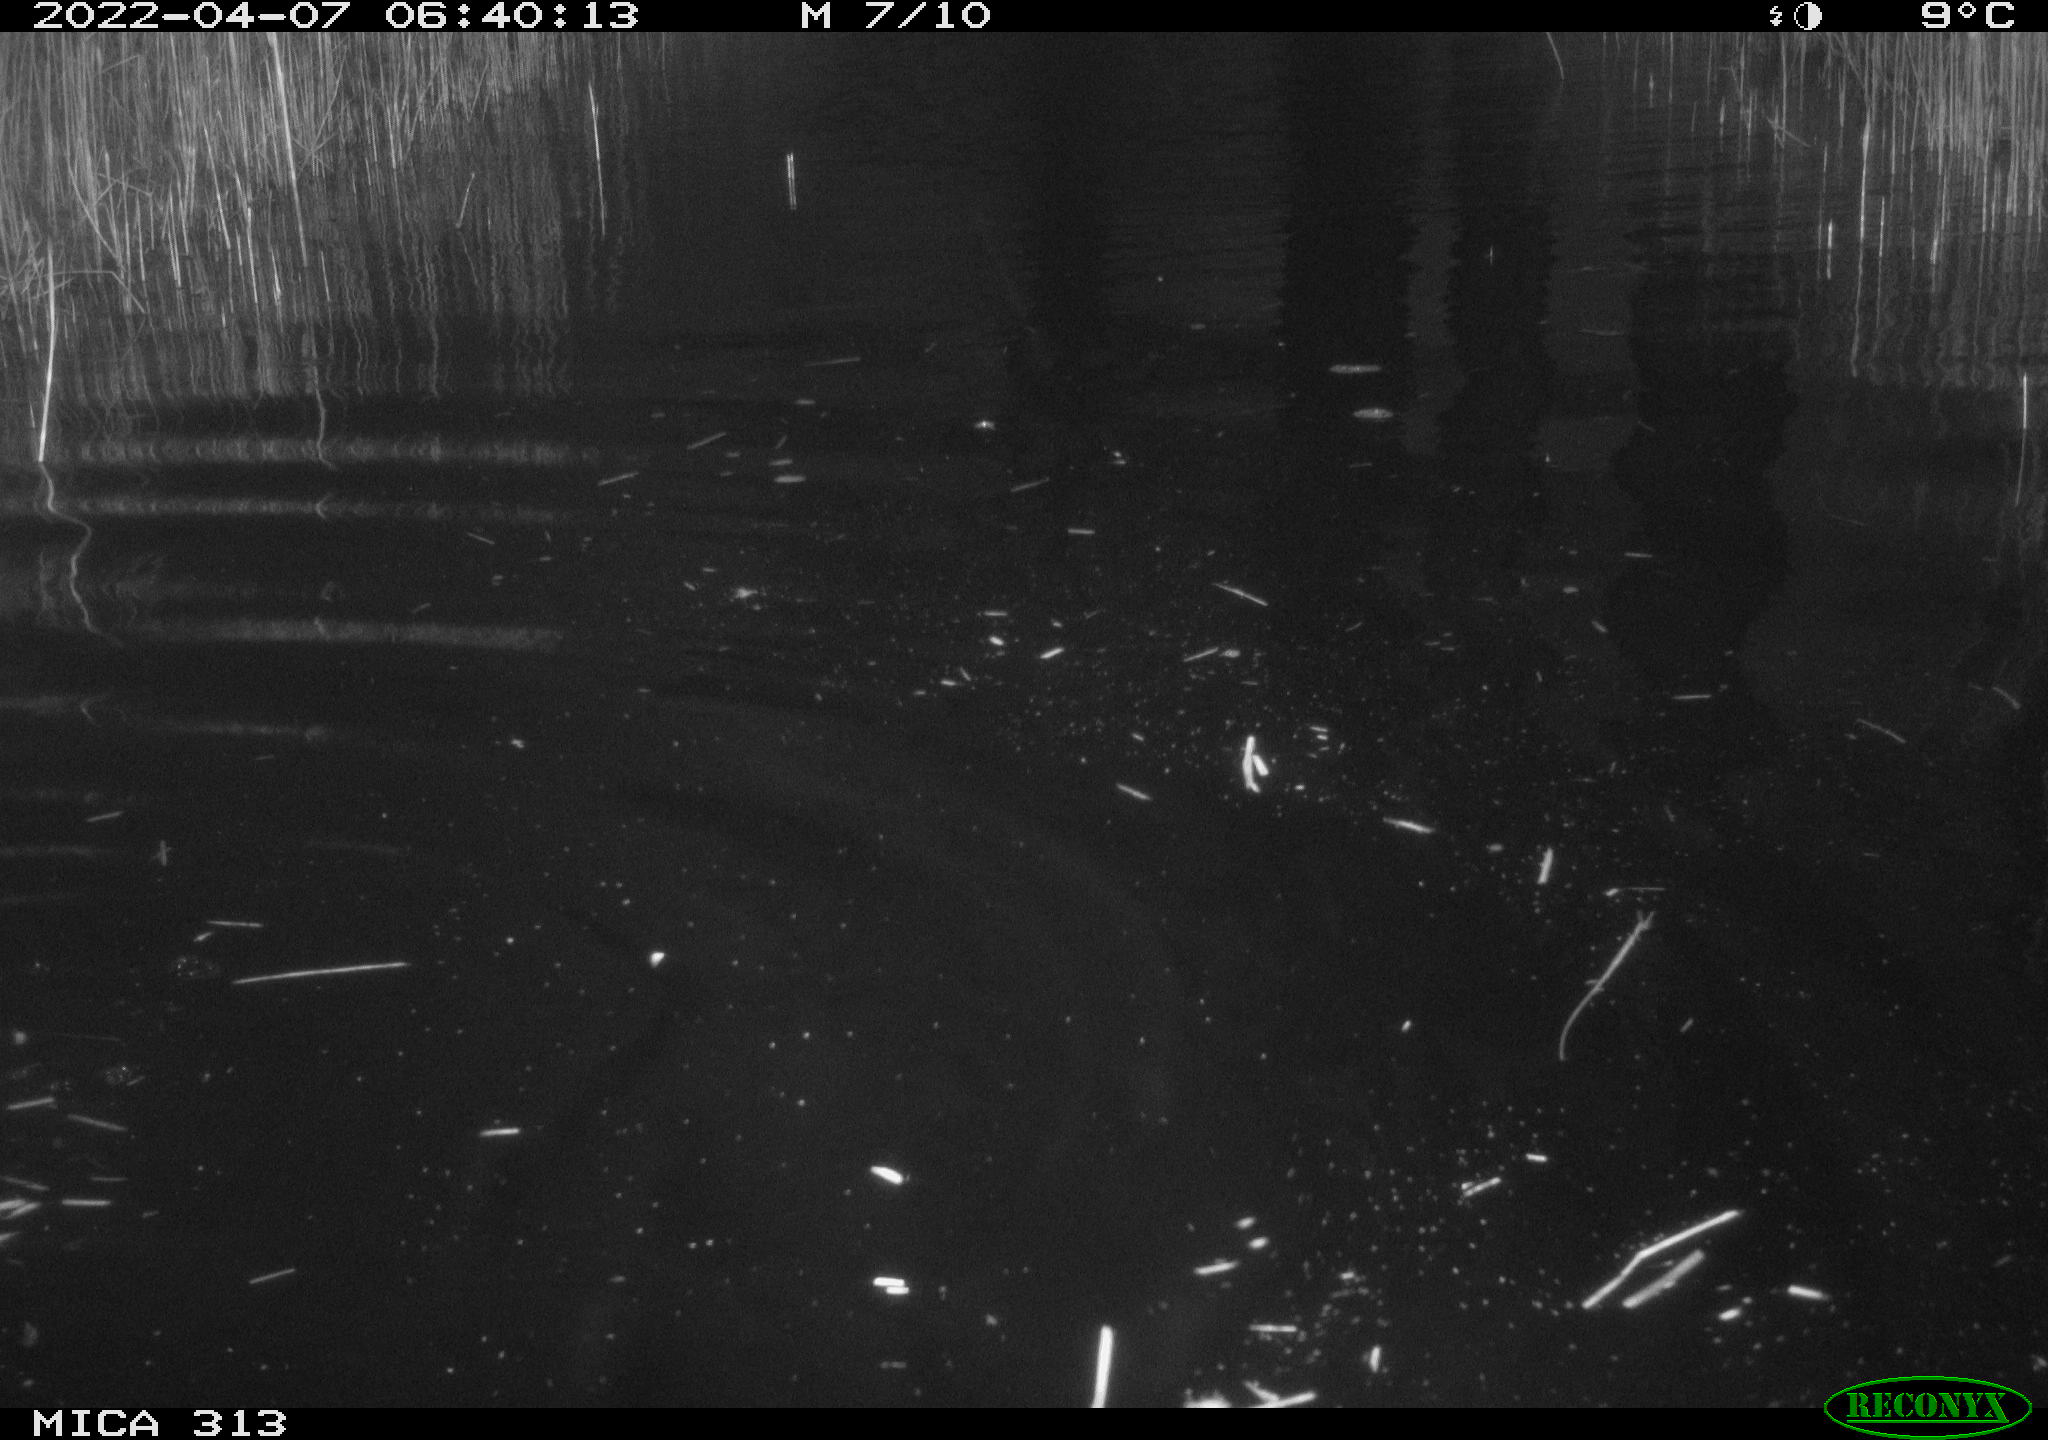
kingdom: Animalia
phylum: Chordata
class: Aves
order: Gruiformes
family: Rallidae
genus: Gallinula
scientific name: Gallinula chloropus
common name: Common moorhen
